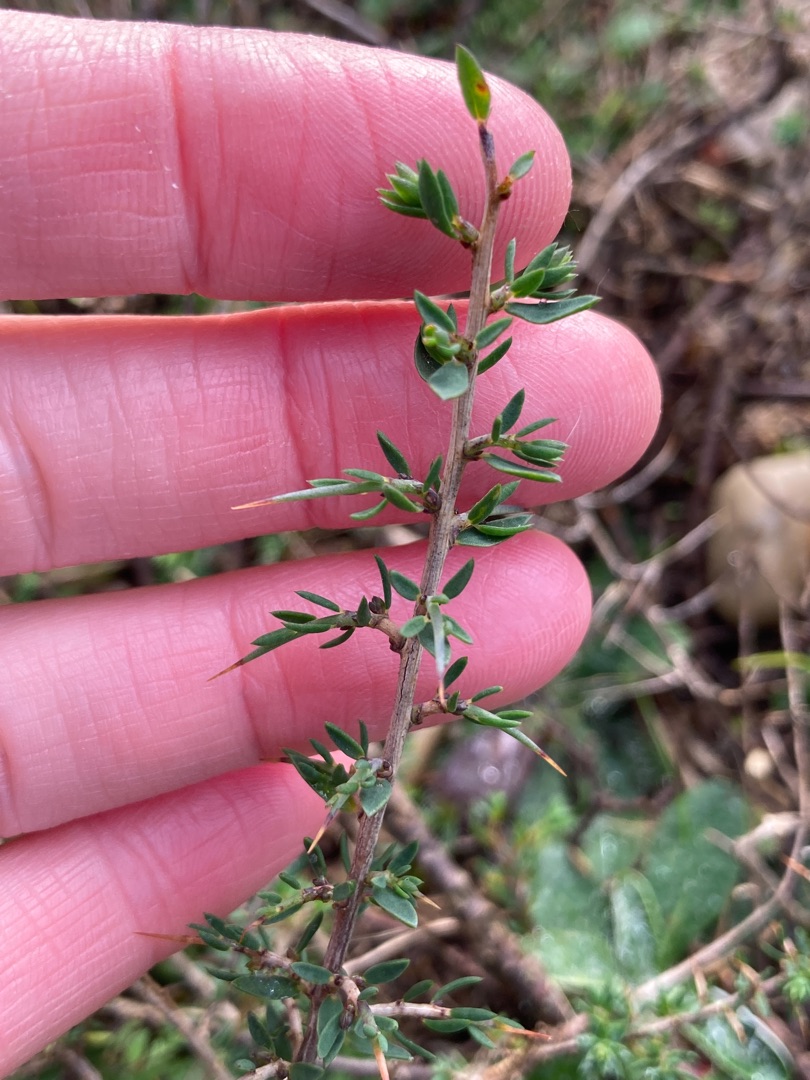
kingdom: Plantae
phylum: Tracheophyta
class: Magnoliopsida
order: Fabales
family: Fabaceae
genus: Genista
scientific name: Genista anglica
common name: Engelsk visse
